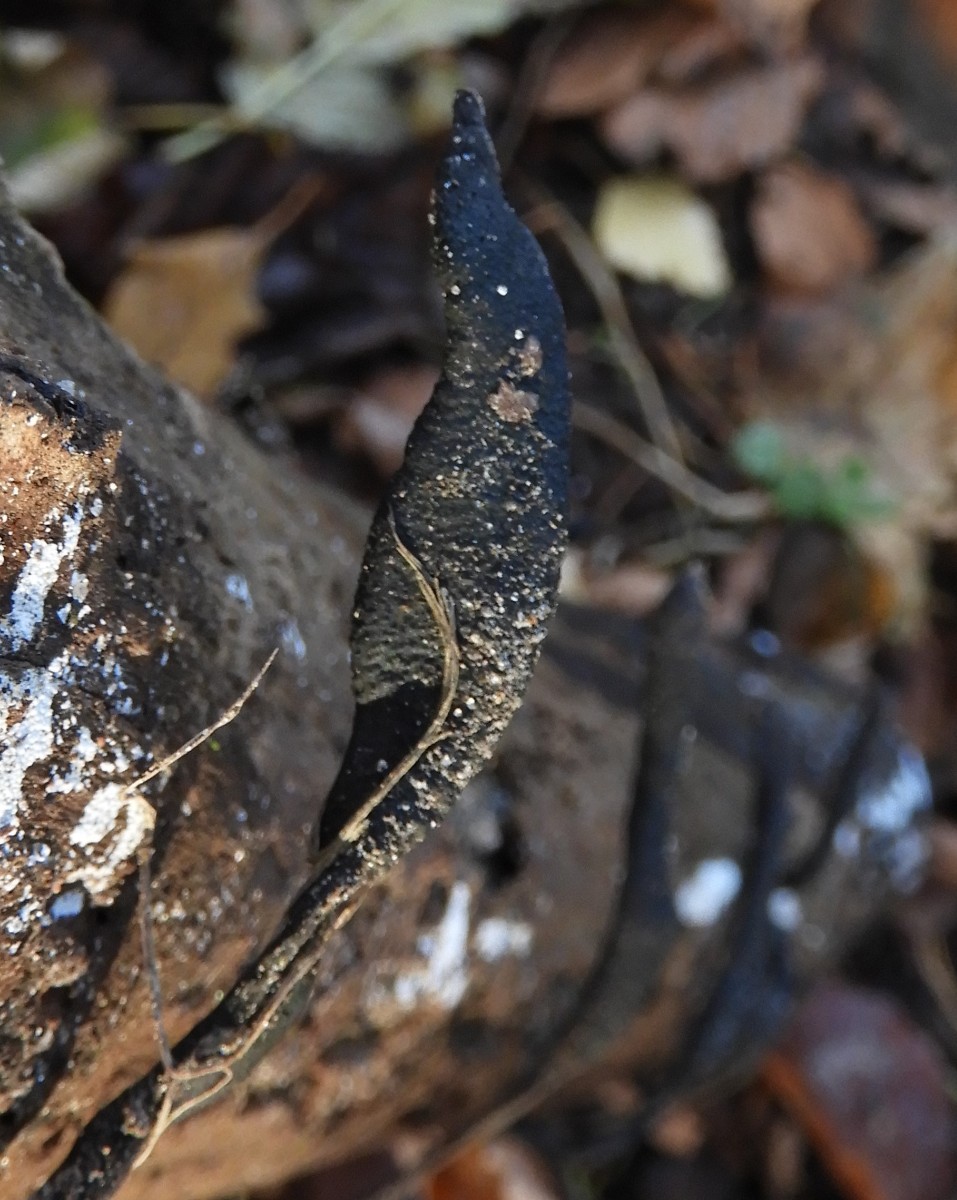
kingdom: Fungi
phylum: Ascomycota
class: Sordariomycetes
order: Xylariales
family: Xylariaceae
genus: Xylaria
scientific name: Xylaria longipes
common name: slank stødsvamp
